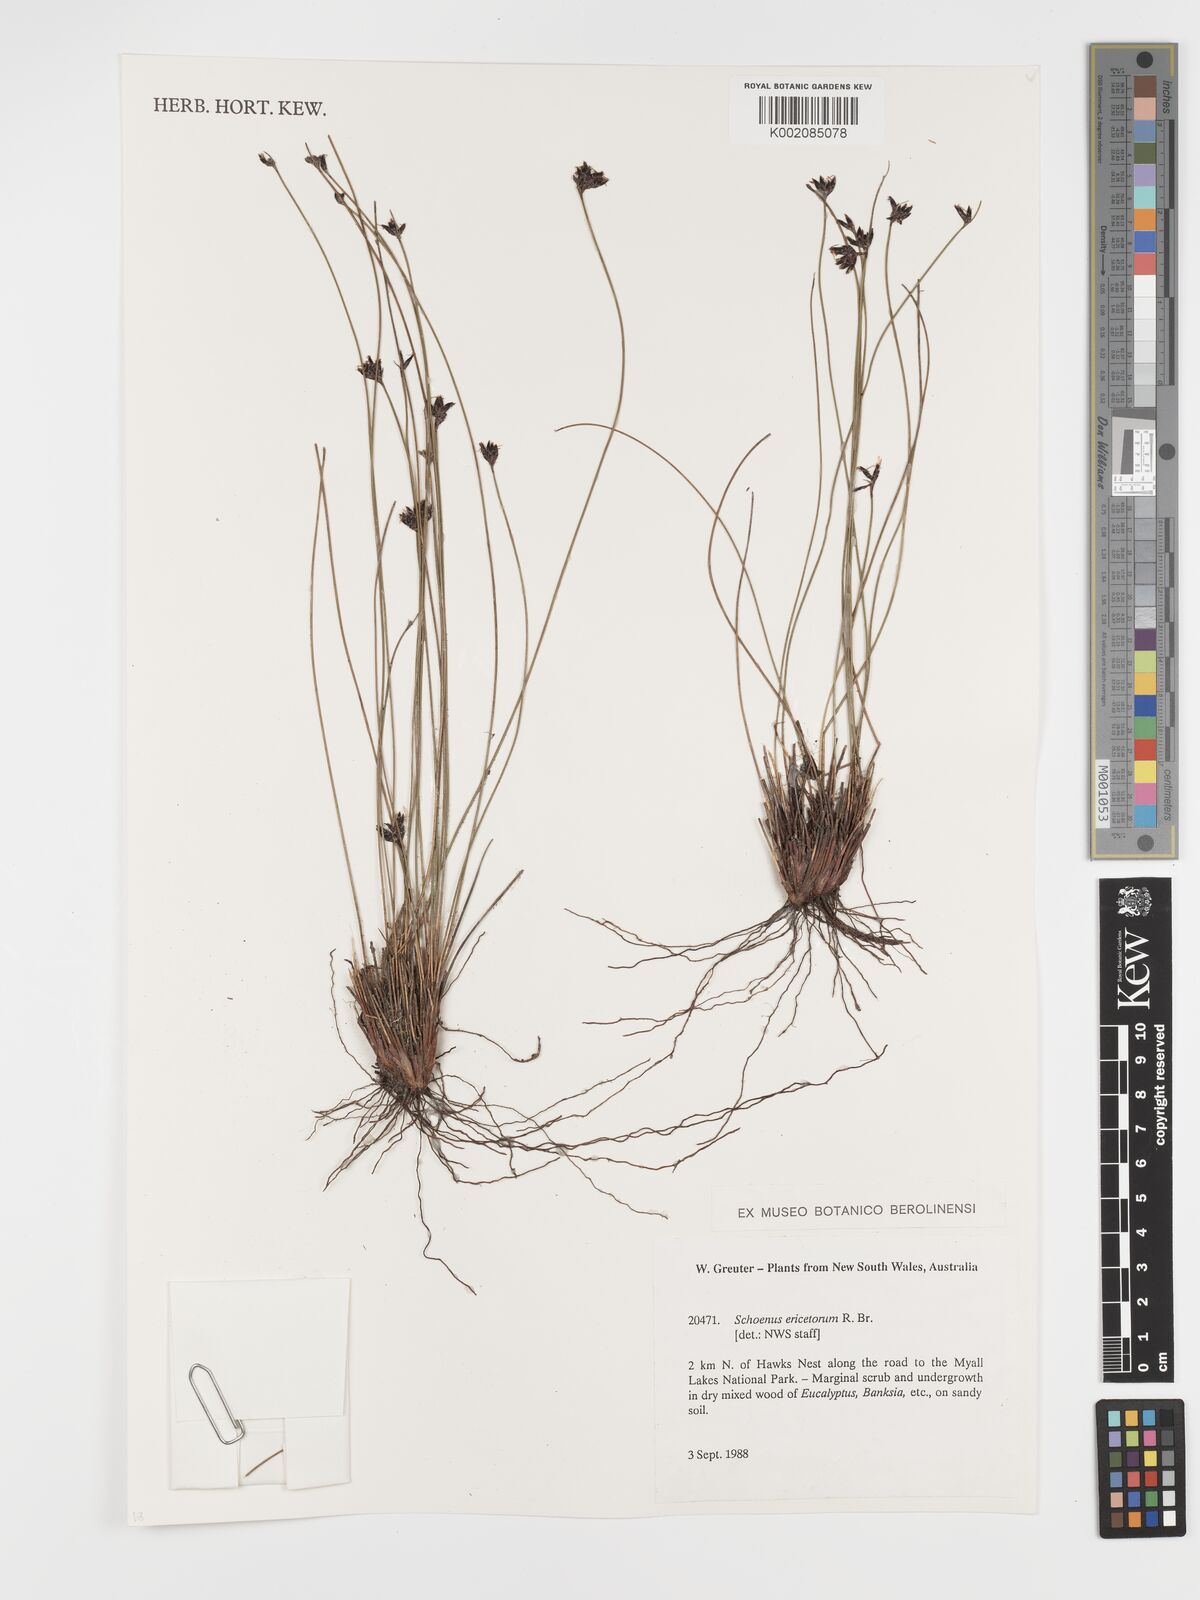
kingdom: Plantae
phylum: Tracheophyta
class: Liliopsida
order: Poales
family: Cyperaceae
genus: Schoenus
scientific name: Schoenus ericetorum
